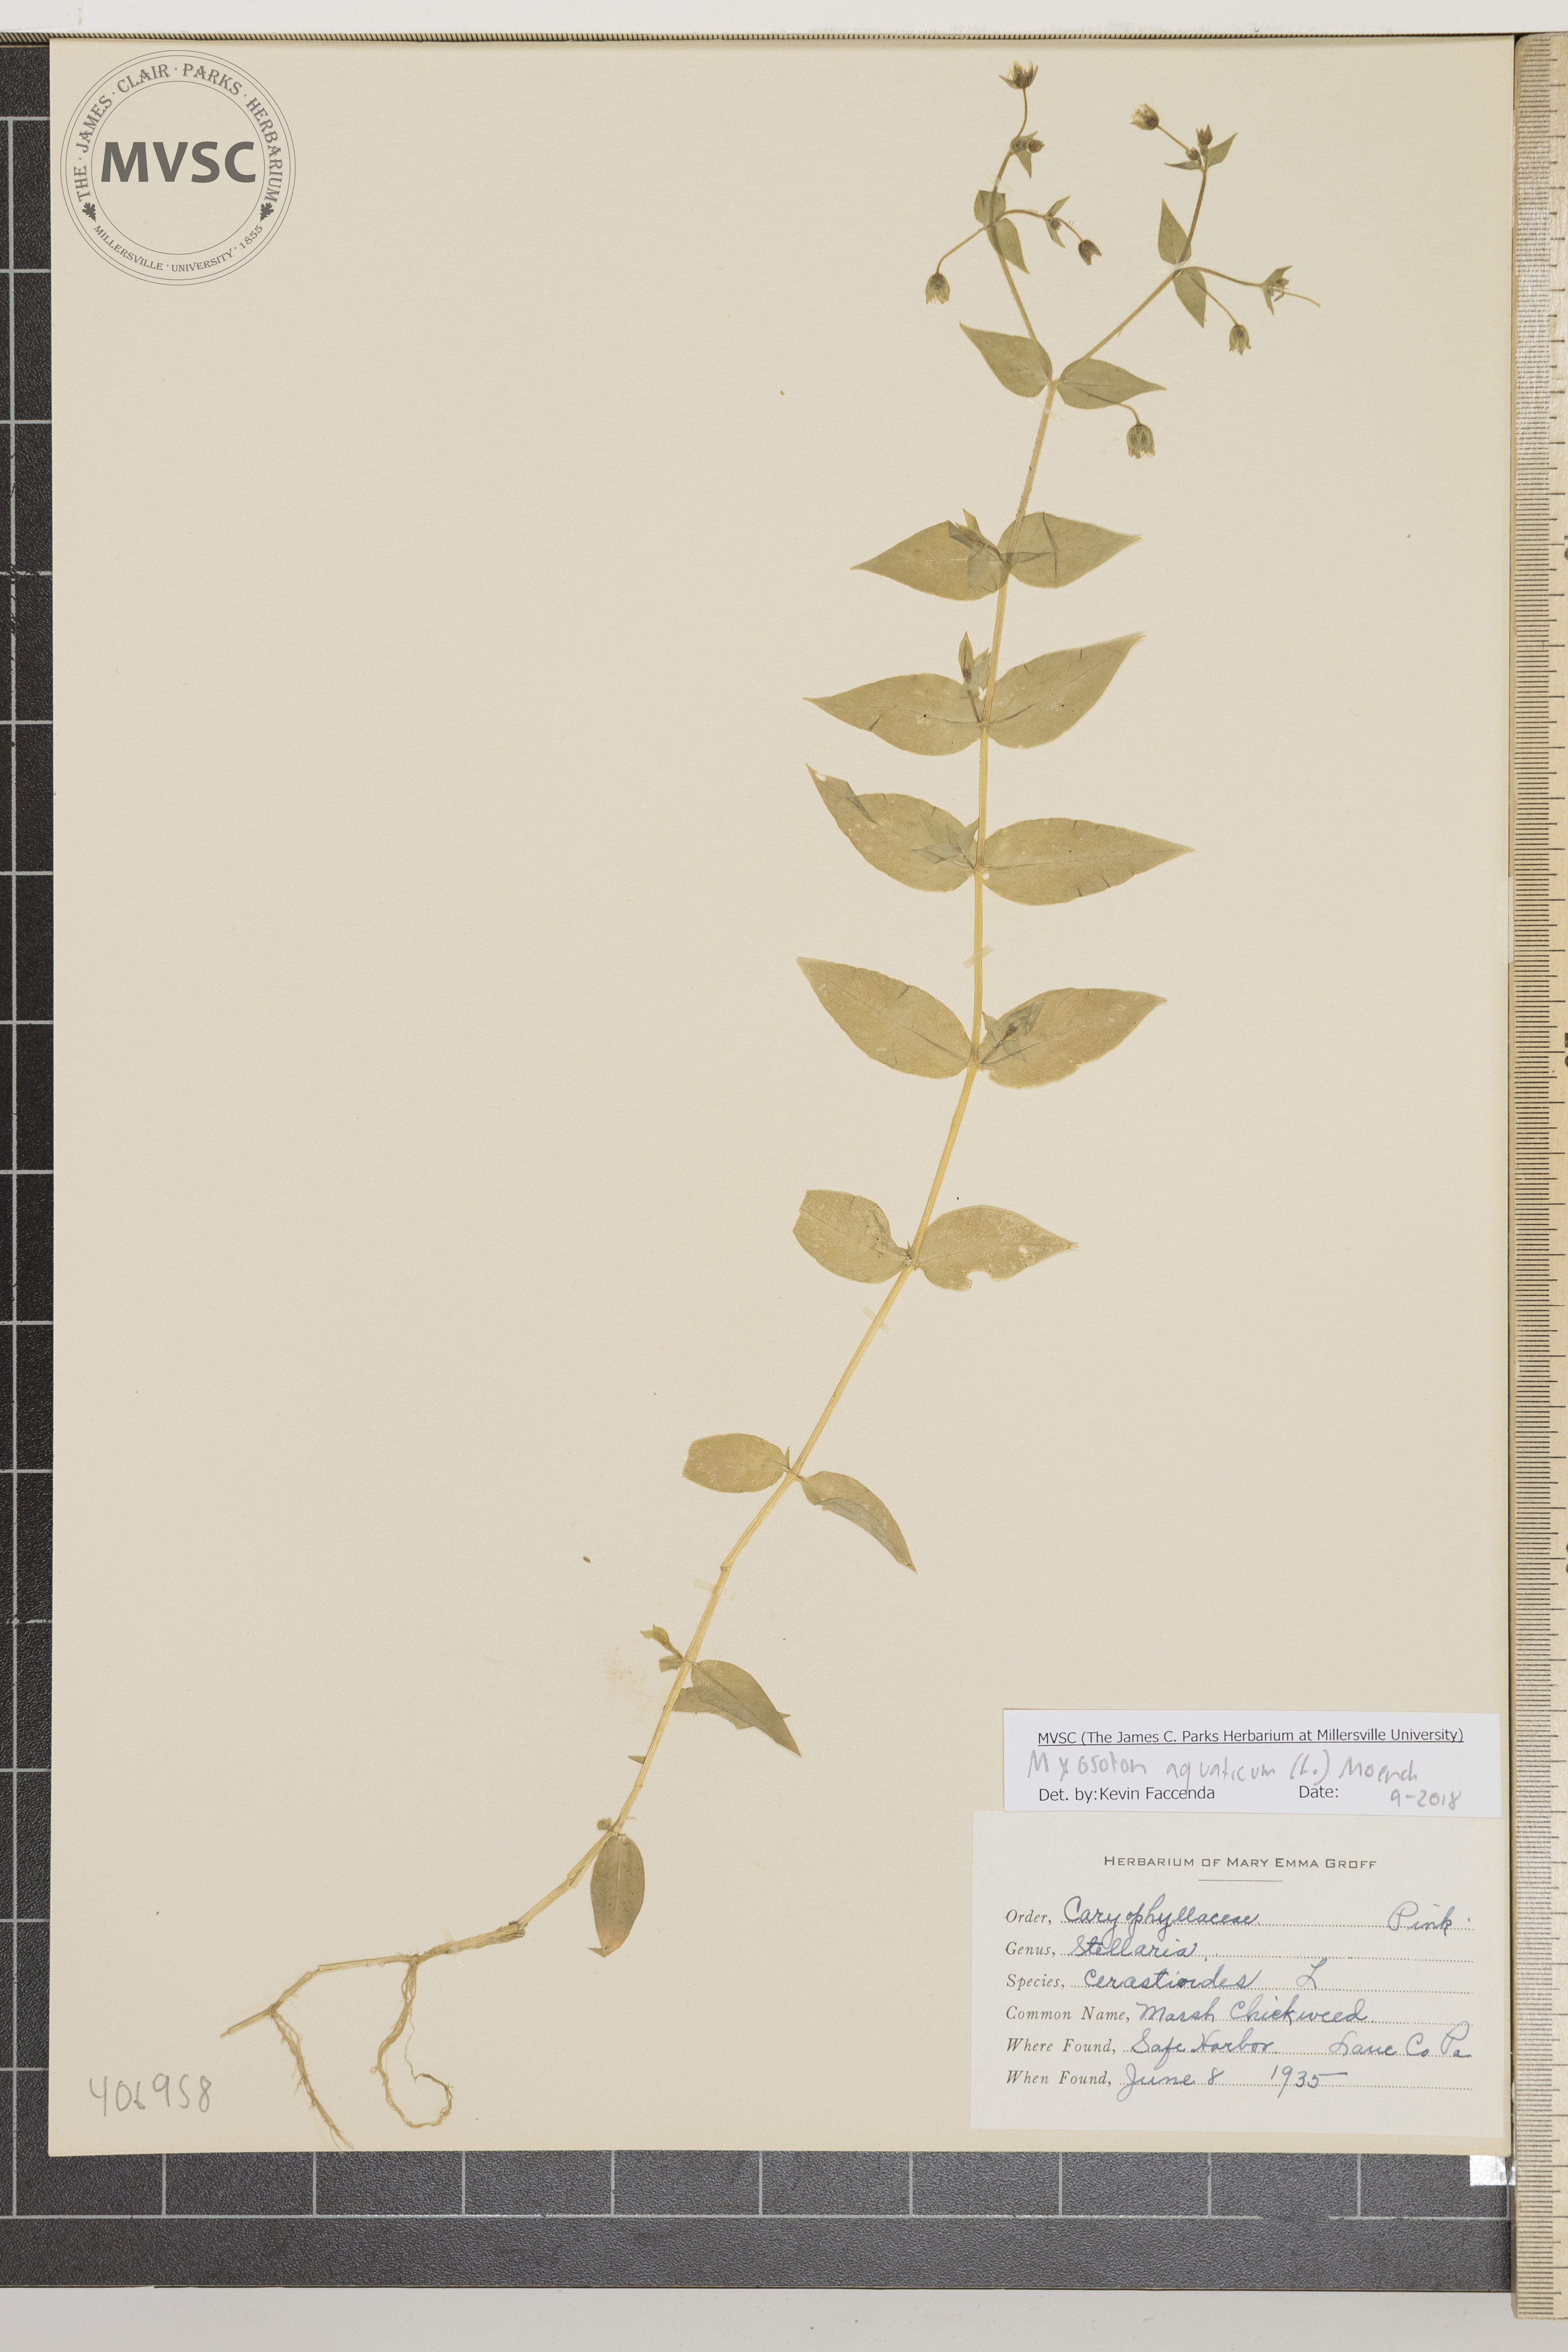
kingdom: Plantae
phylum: Tracheophyta
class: Magnoliopsida
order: Caryophyllales
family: Caryophyllaceae
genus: Stellaria
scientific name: Stellaria aquatica
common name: Marsh chickweed
